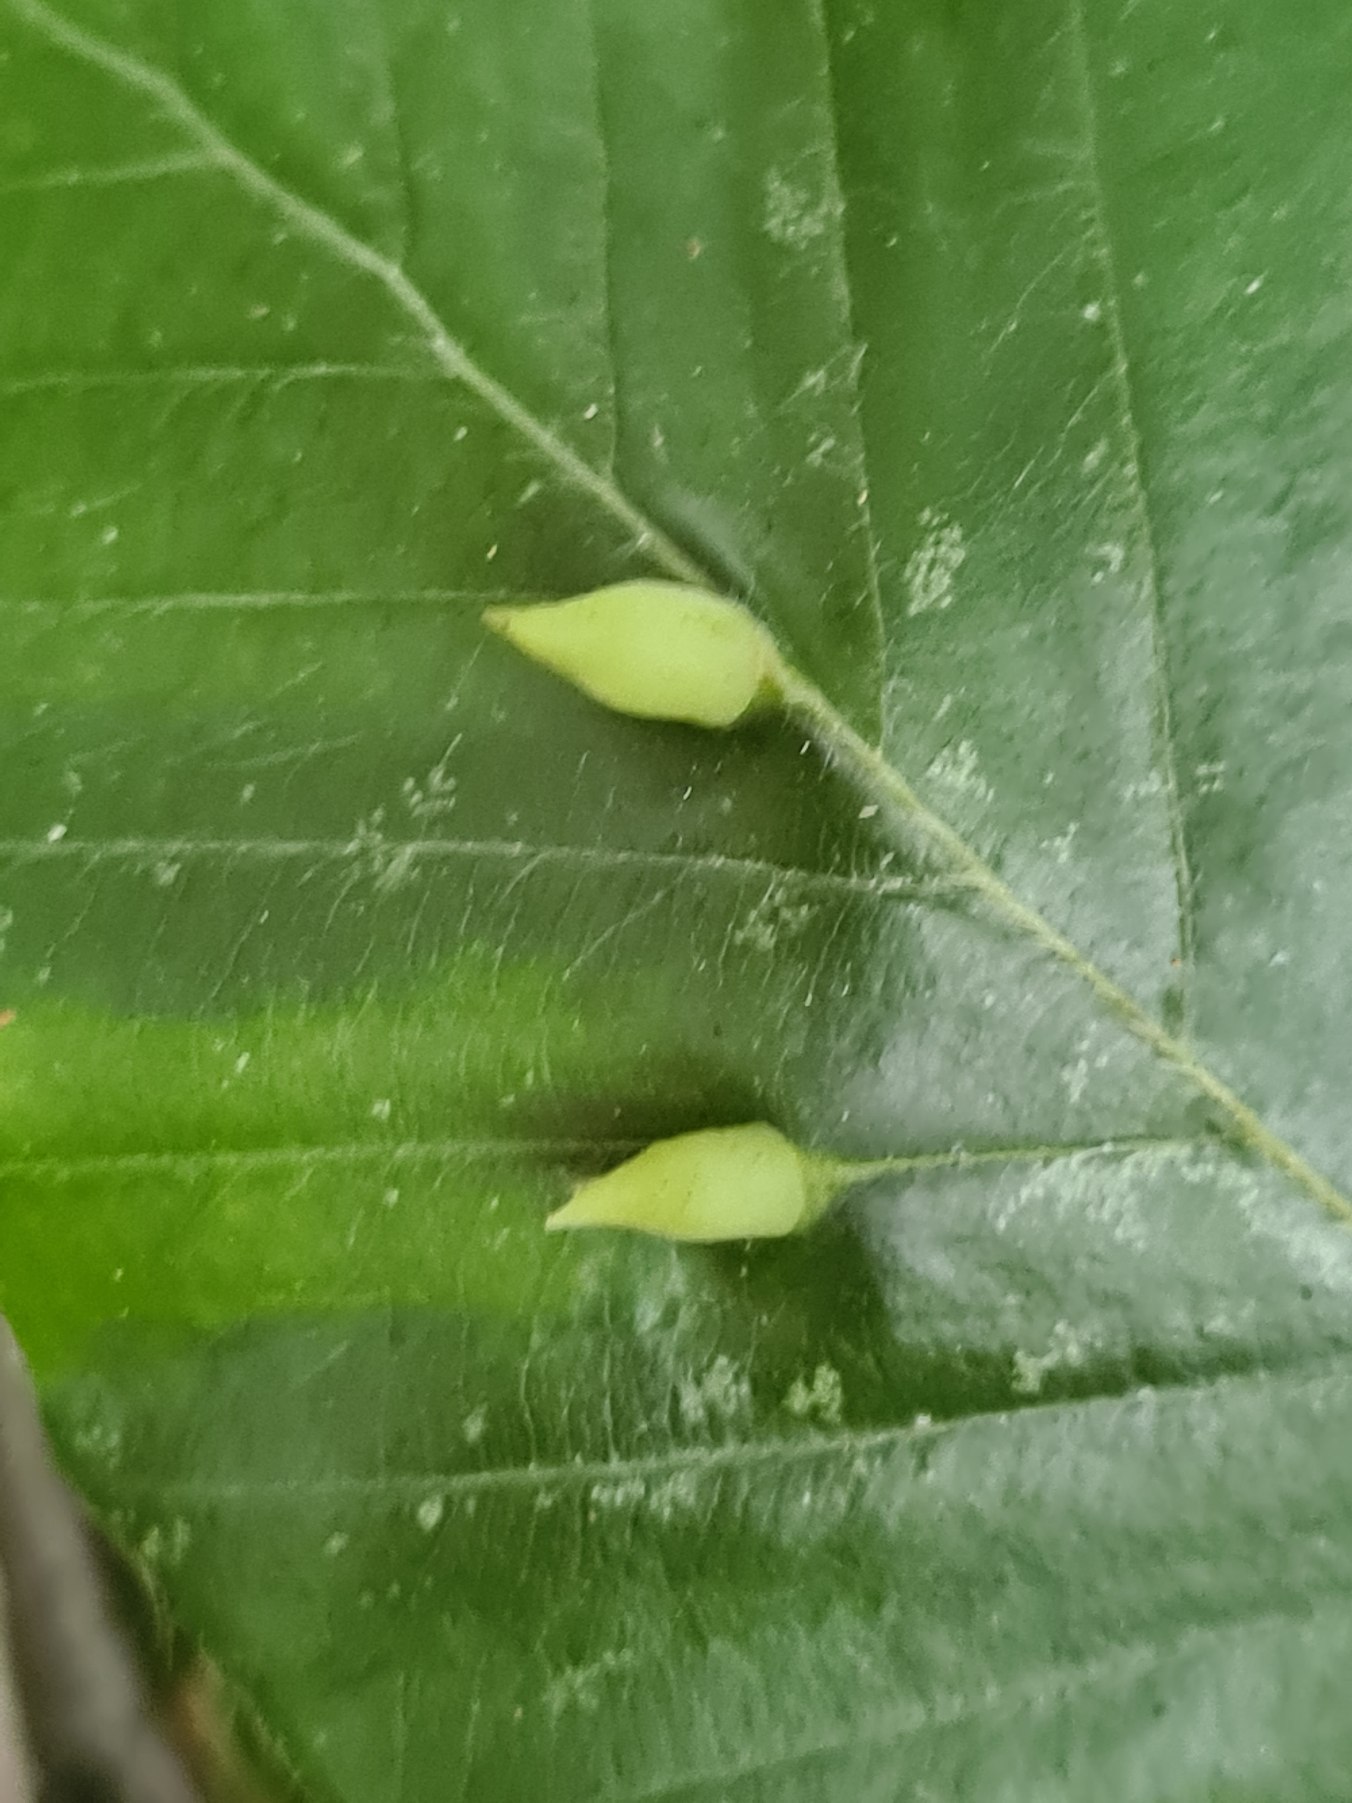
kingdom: Animalia
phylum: Arthropoda
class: Insecta
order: Diptera
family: Cecidomyiidae
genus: Mikiola
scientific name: Mikiola fagi
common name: Bøgegalmyg
